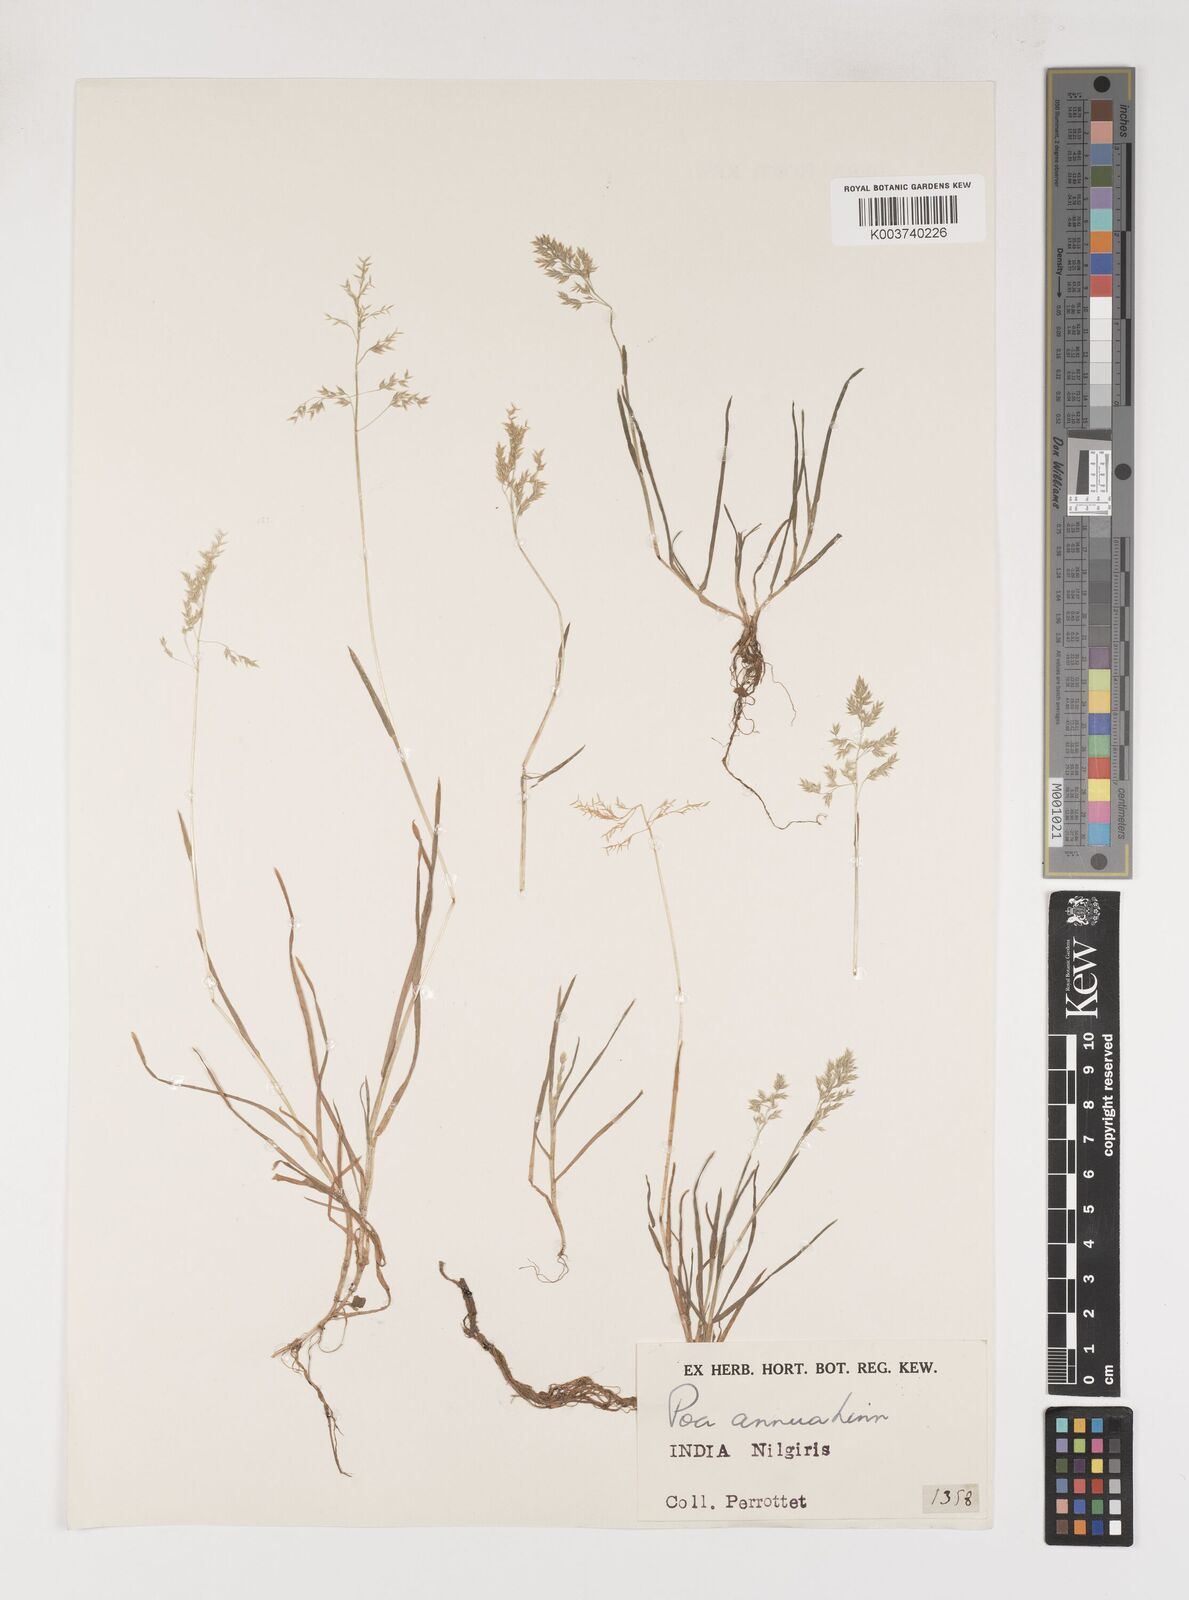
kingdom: Plantae
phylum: Tracheophyta
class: Liliopsida
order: Poales
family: Poaceae
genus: Poa
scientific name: Poa annua
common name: Annual bluegrass
